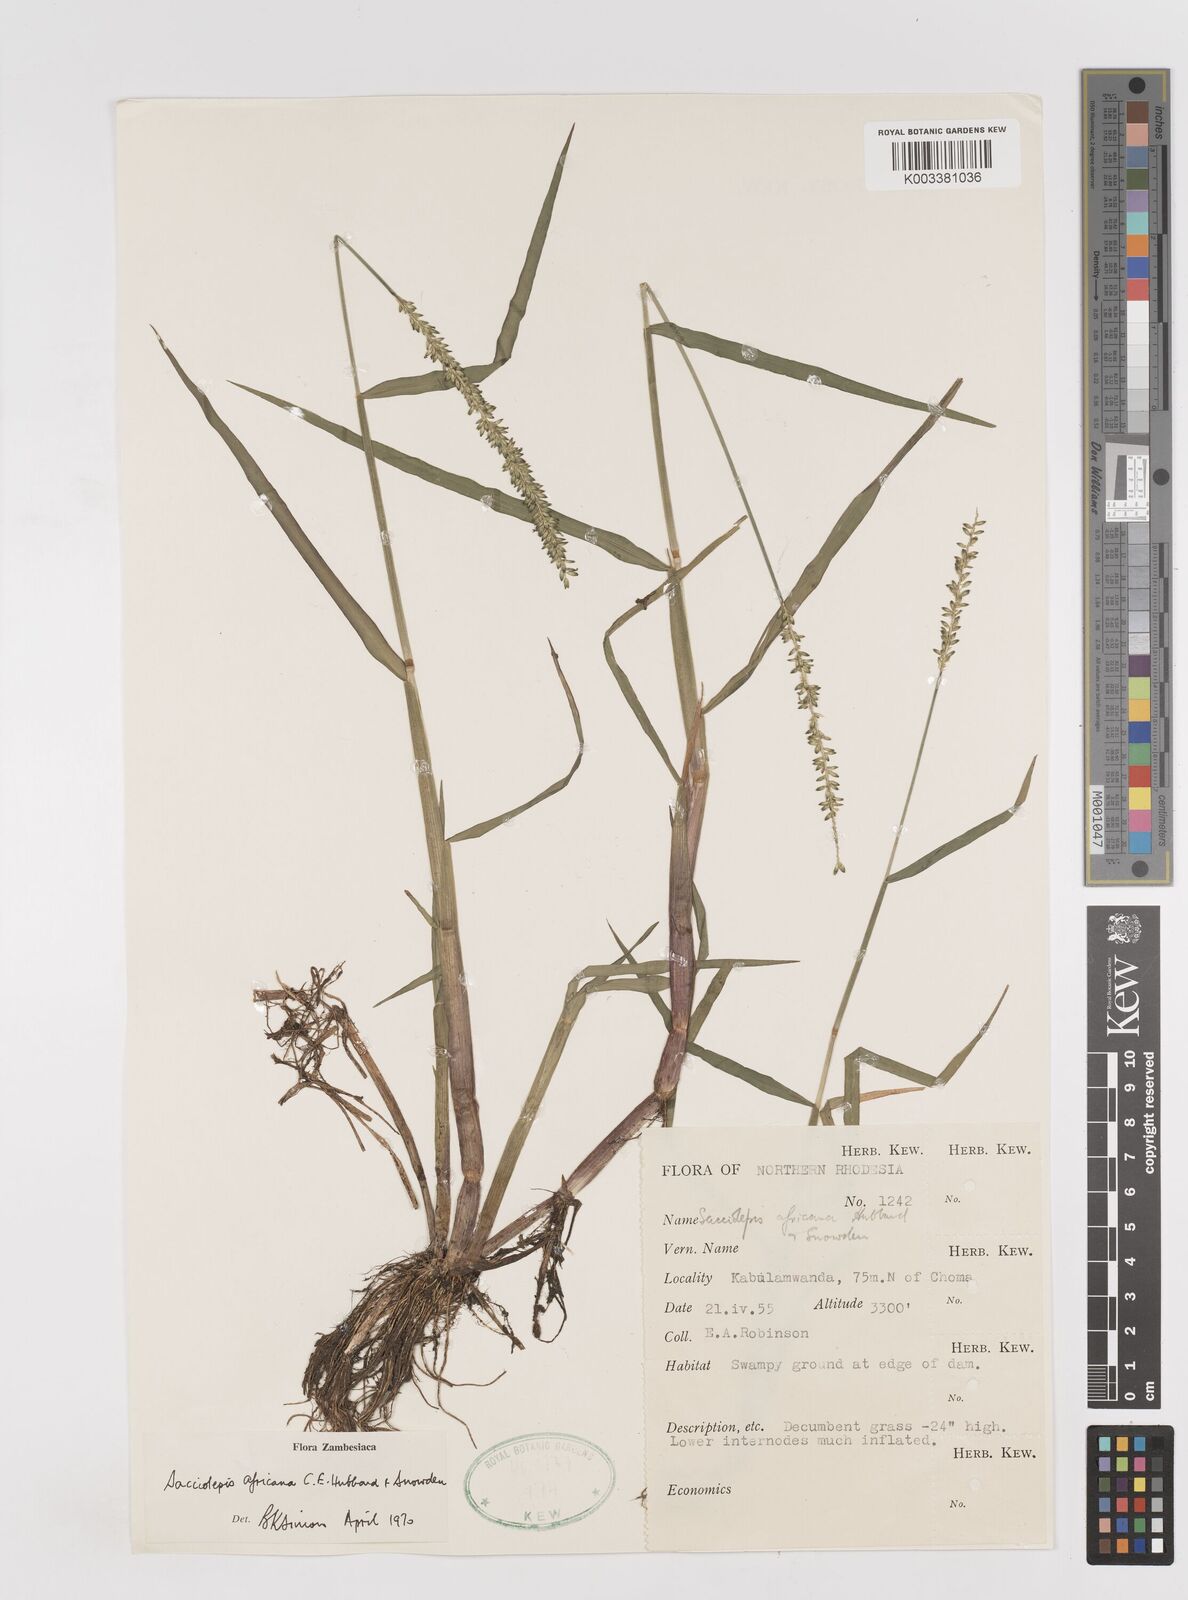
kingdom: Plantae
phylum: Tracheophyta
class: Liliopsida
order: Poales
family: Poaceae
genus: Sacciolepis
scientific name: Sacciolepis africana
